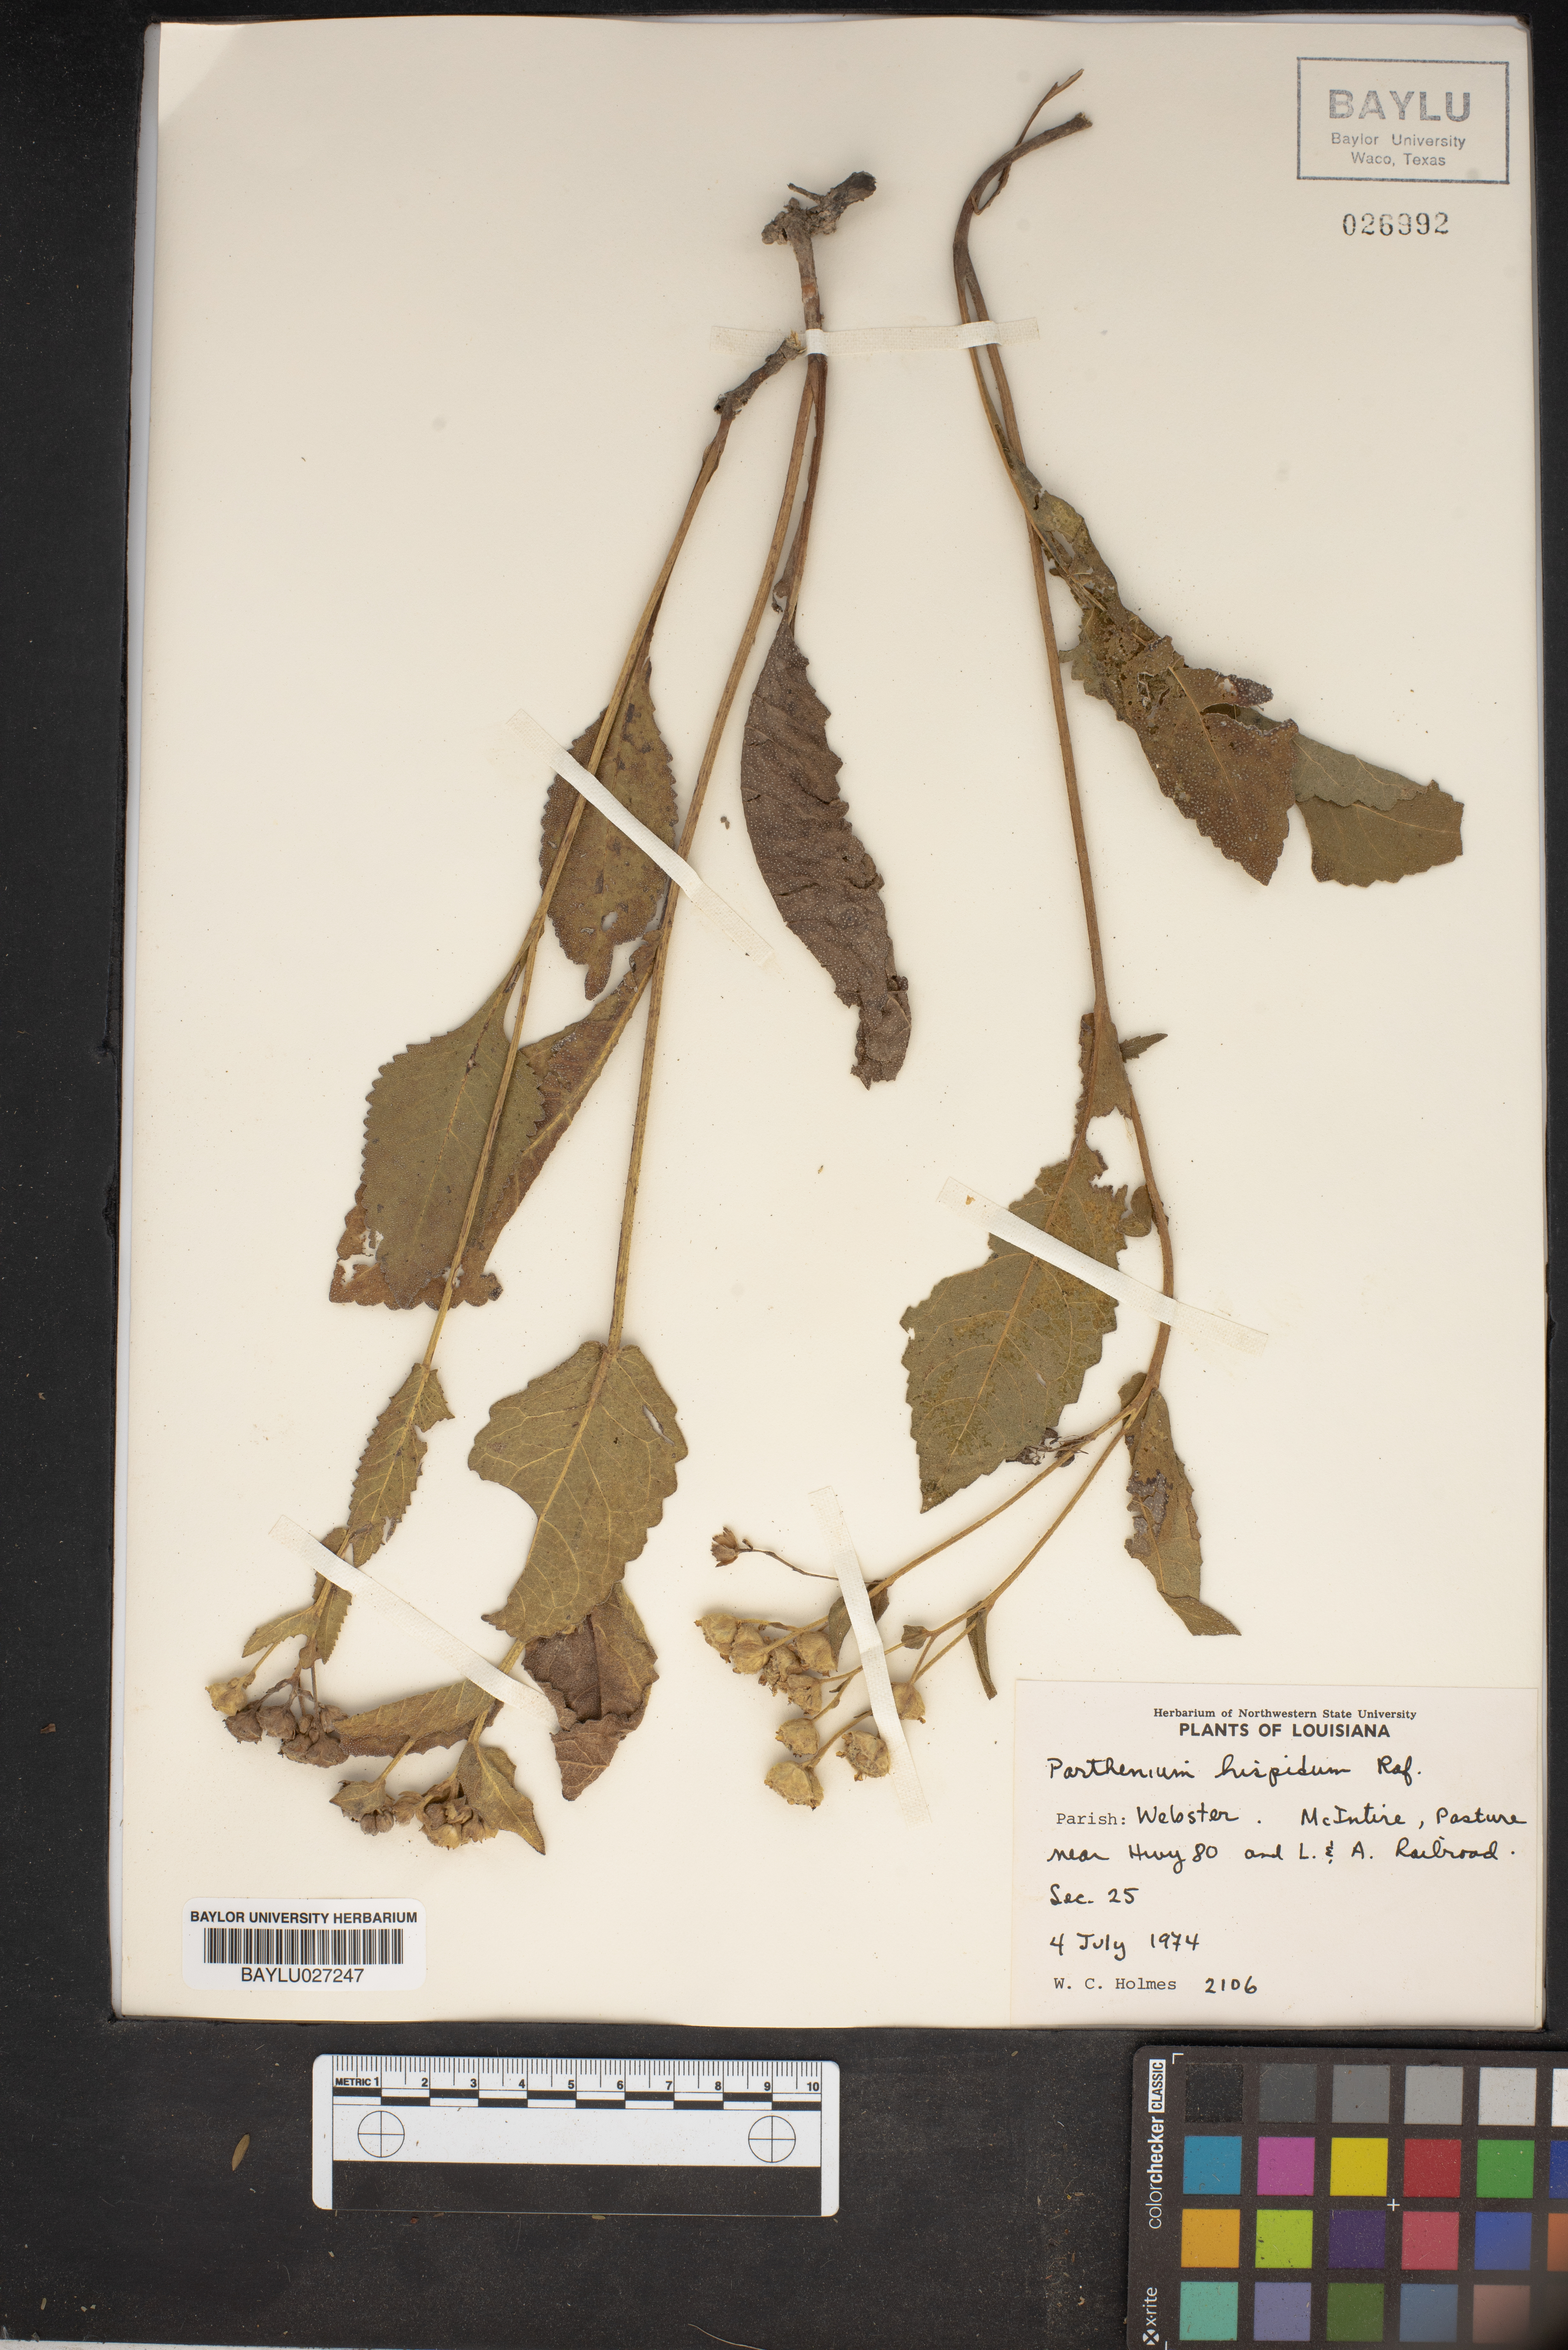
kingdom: Plantae
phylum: Tracheophyta
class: Magnoliopsida
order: Asterales
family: Asteraceae
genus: Parthenium
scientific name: Parthenium hispidum
